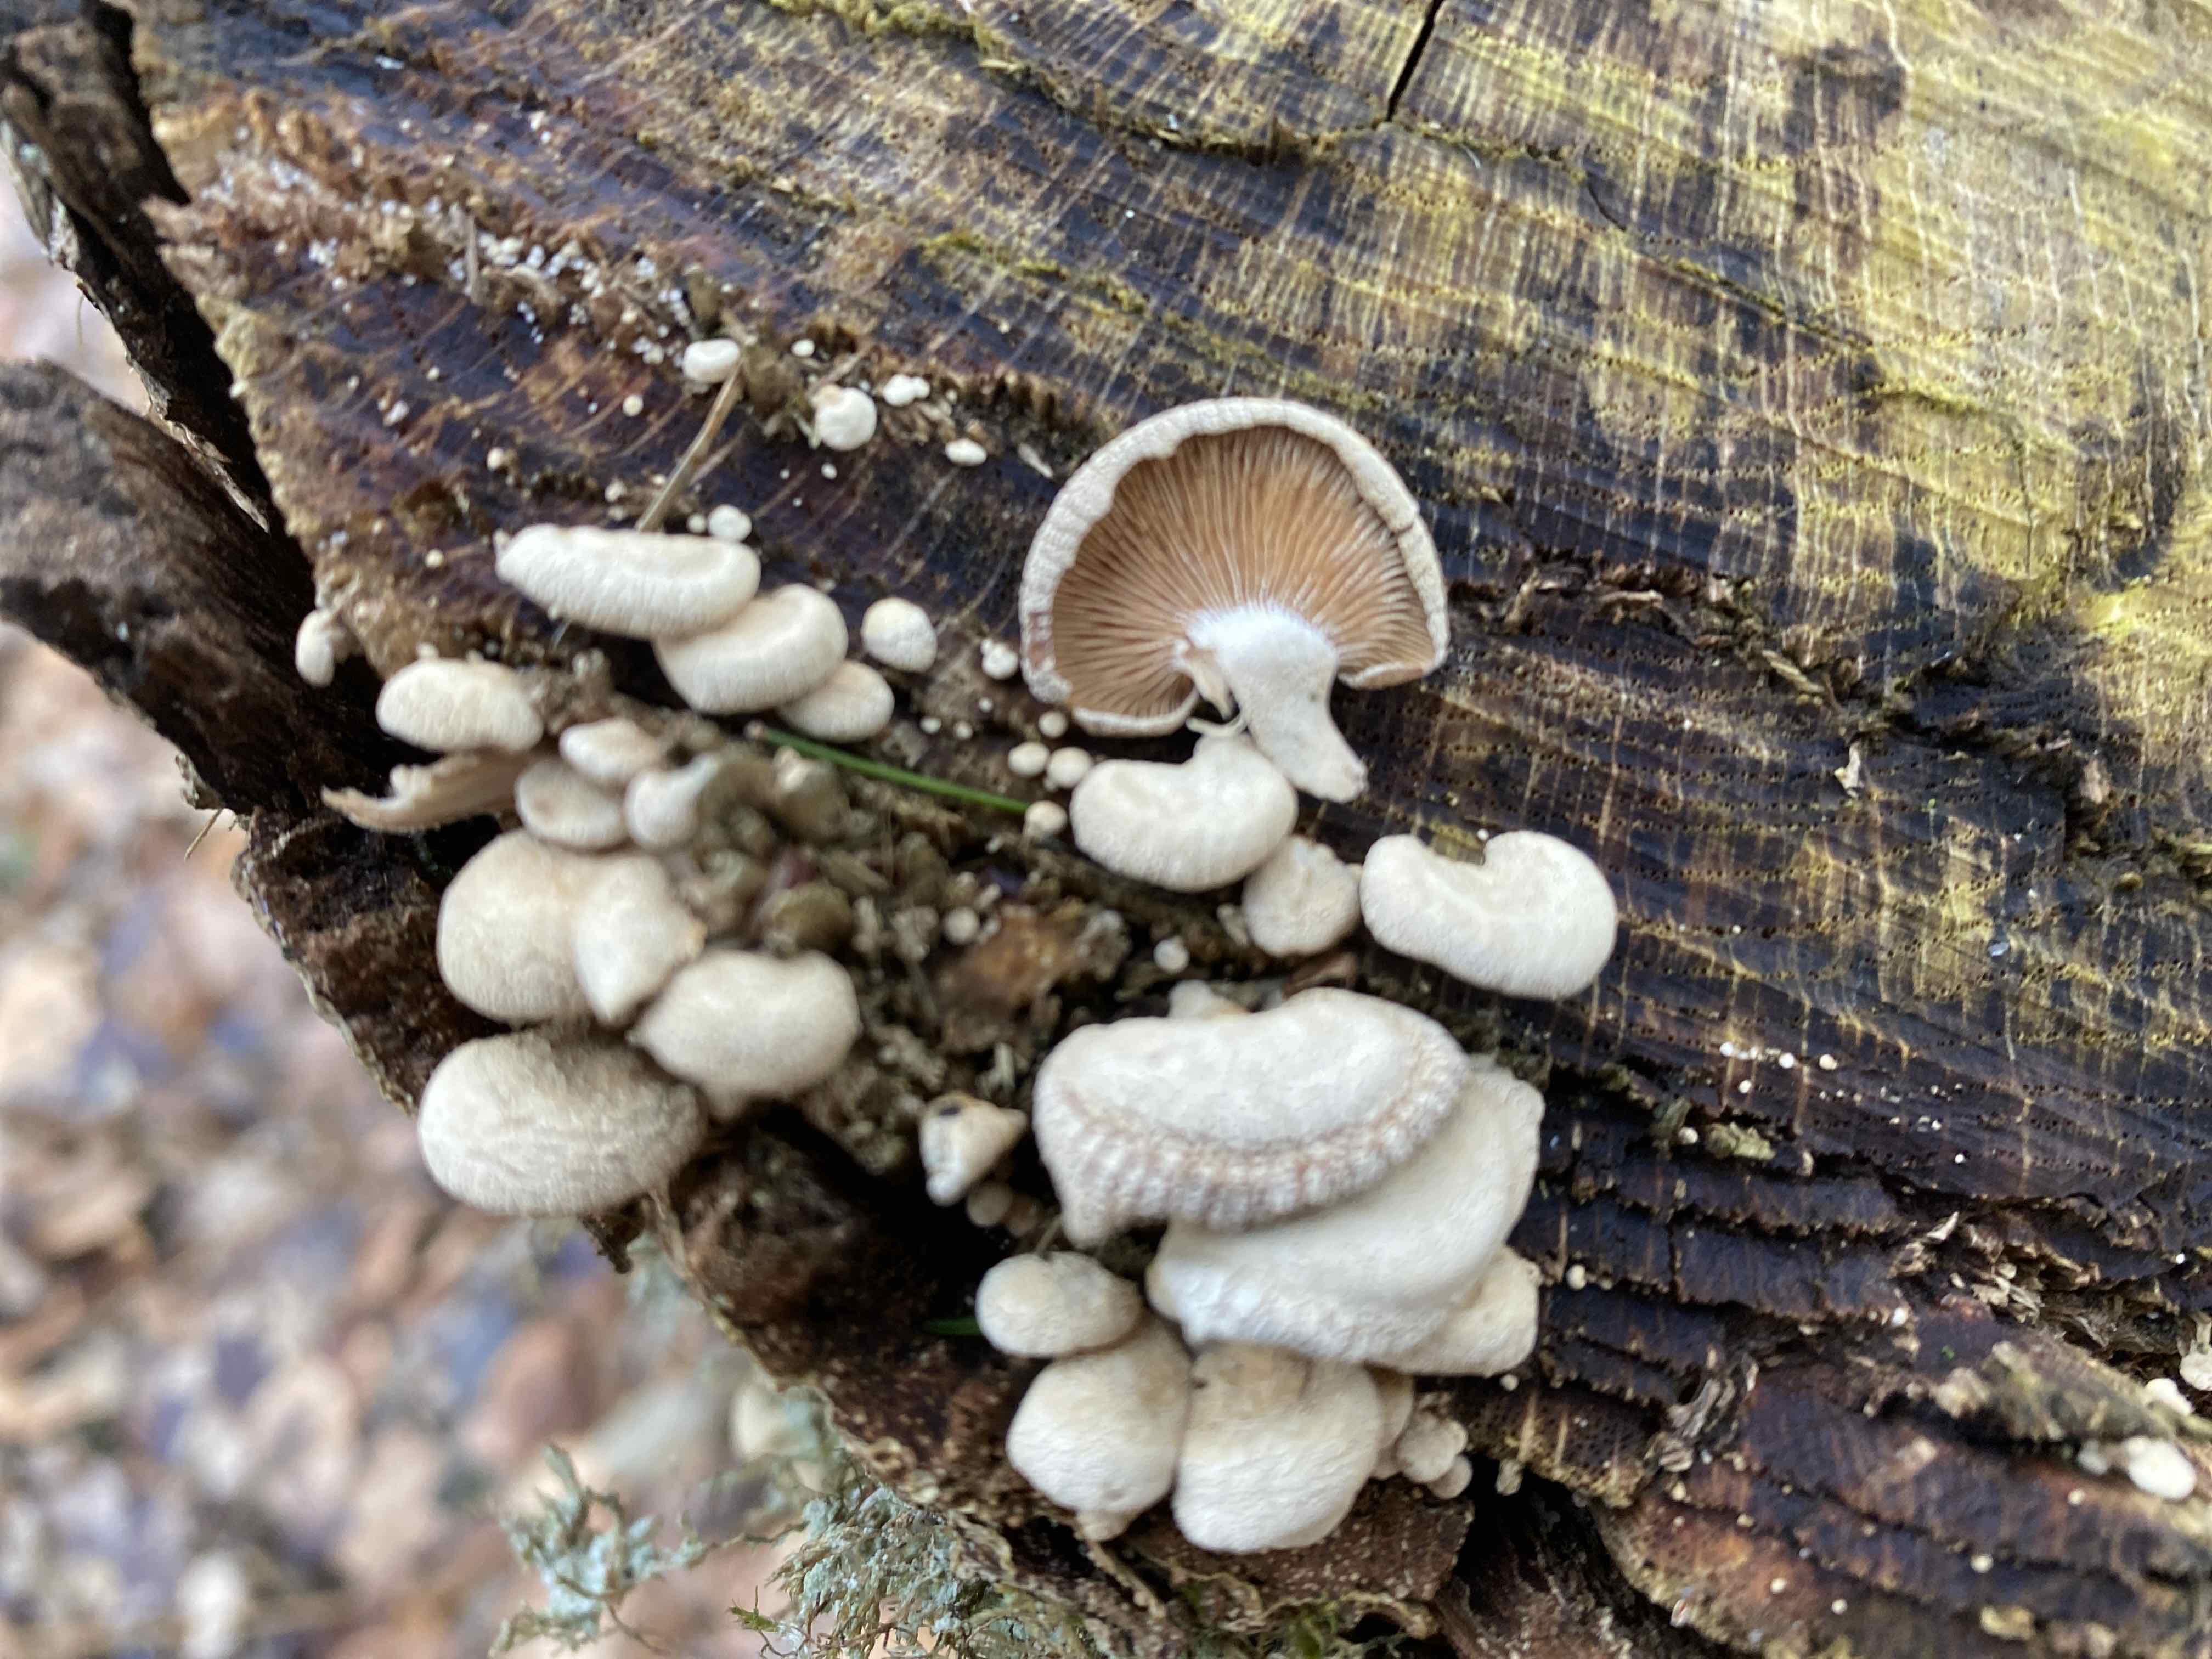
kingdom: Fungi
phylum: Basidiomycota
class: Agaricomycetes
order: Agaricales
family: Mycenaceae
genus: Panellus
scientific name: Panellus stipticus
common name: kliddet epaulethat
